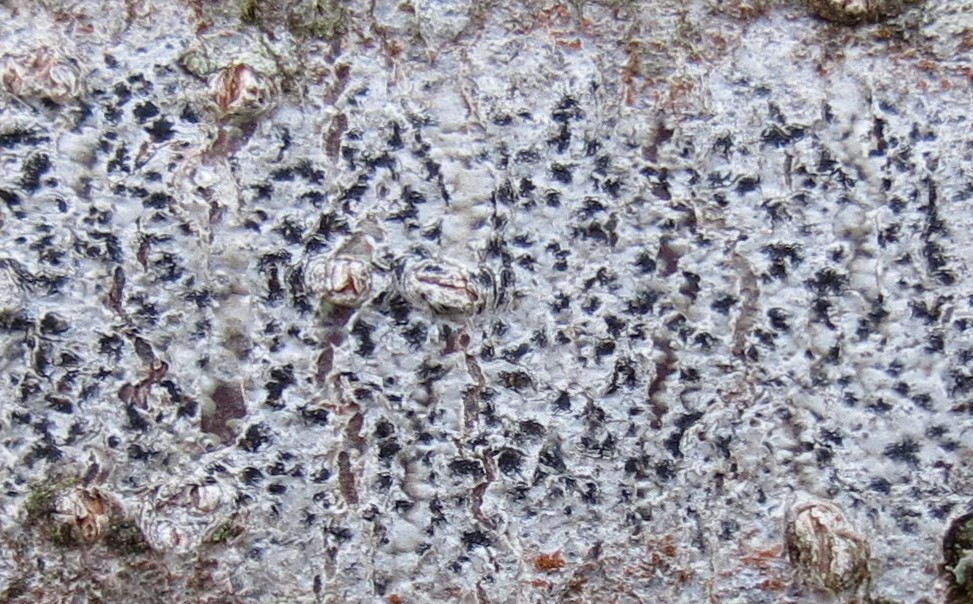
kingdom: Fungi
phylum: Ascomycota
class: Arthoniomycetes
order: Arthoniales
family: Arthoniaceae
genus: Arthonia
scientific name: Arthonia radiata
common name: stjerne-pletlav
